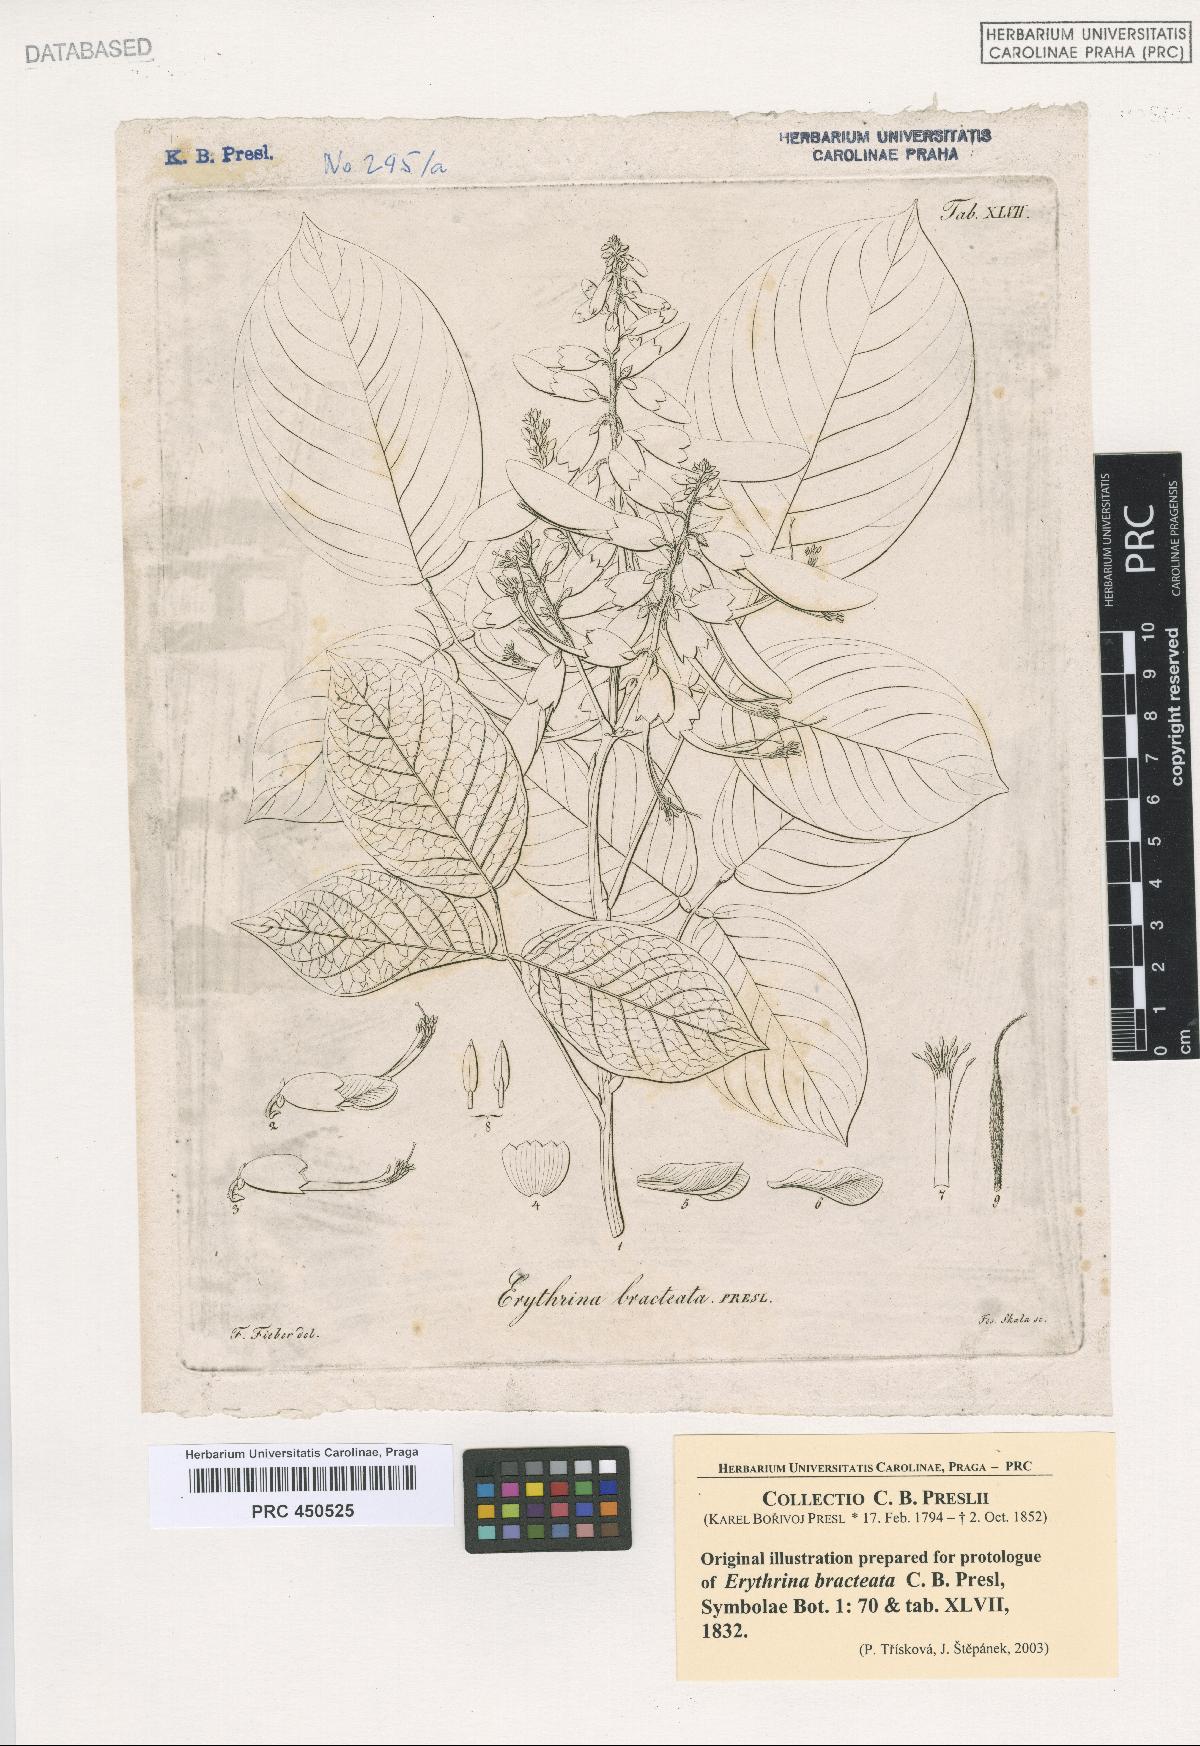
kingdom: Plantae
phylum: Tracheophyta
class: Magnoliopsida
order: Fabales
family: Fabaceae
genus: Cratylia
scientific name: Cratylia isopetala
